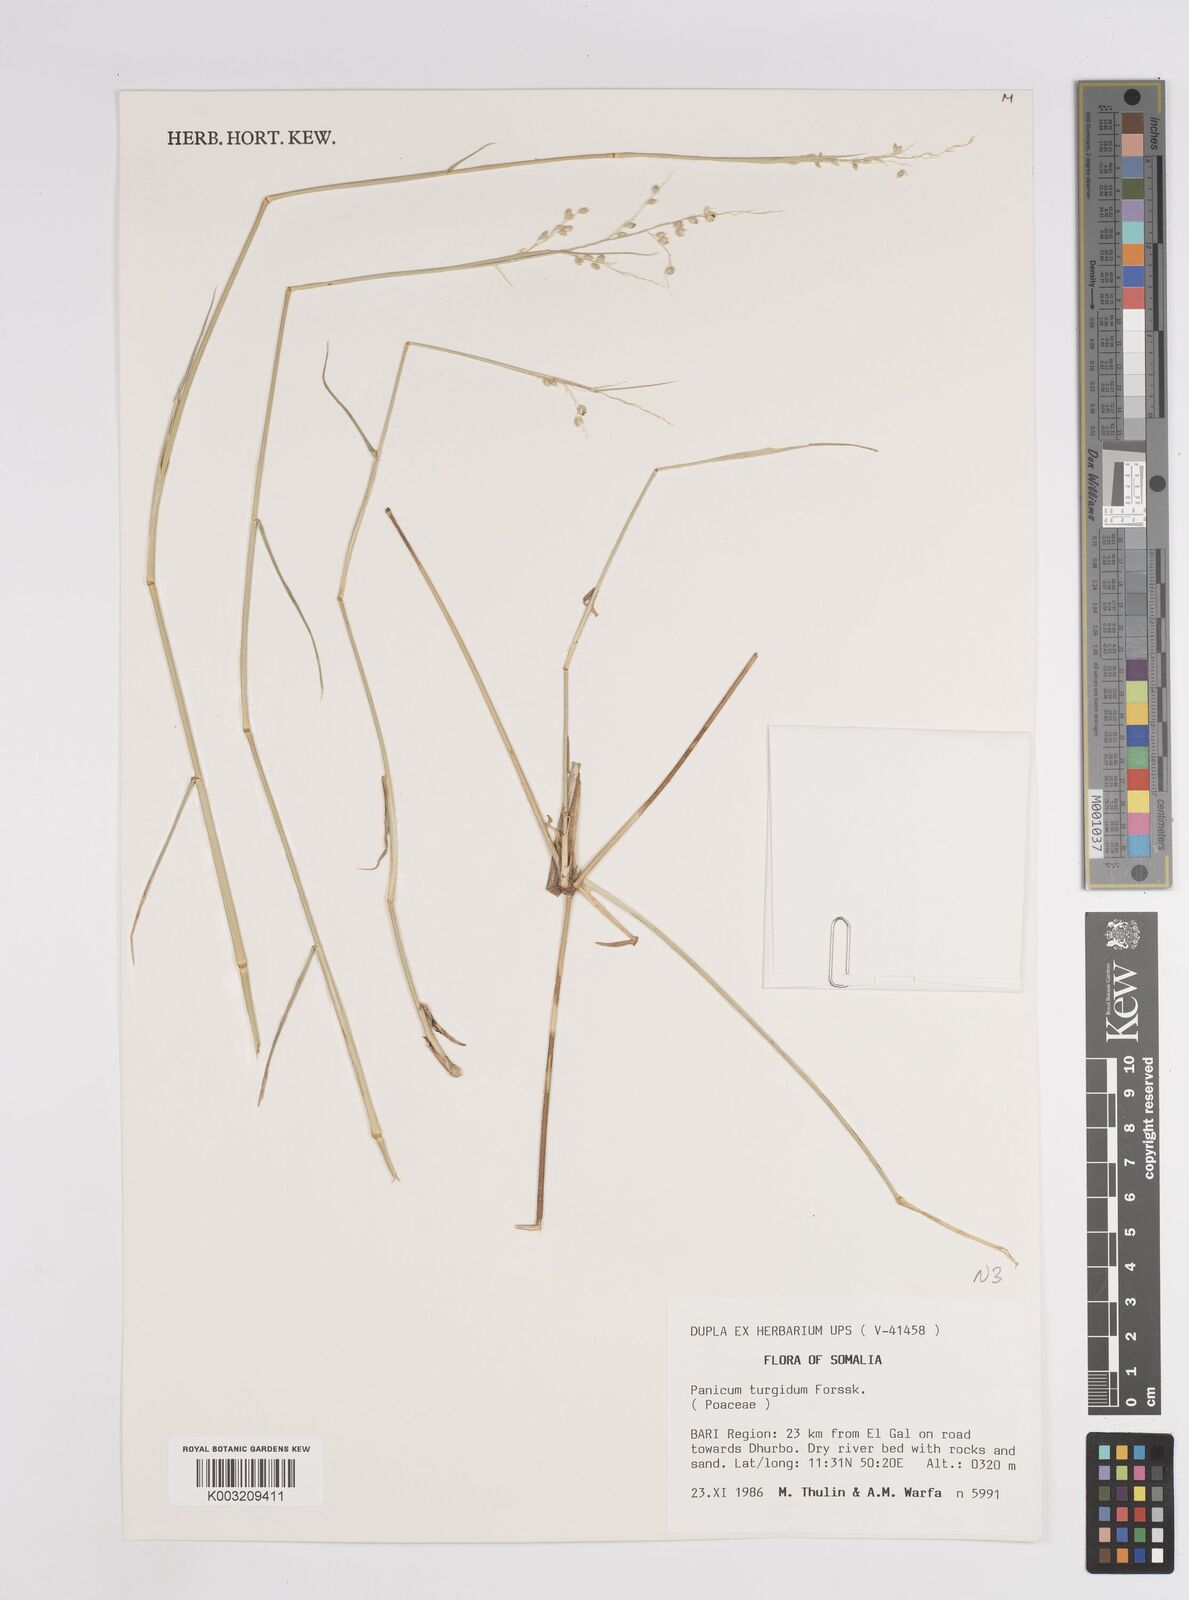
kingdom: Plantae
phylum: Tracheophyta
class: Liliopsida
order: Poales
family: Poaceae
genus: Panicum
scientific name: Panicum turgidum
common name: Desert grass
